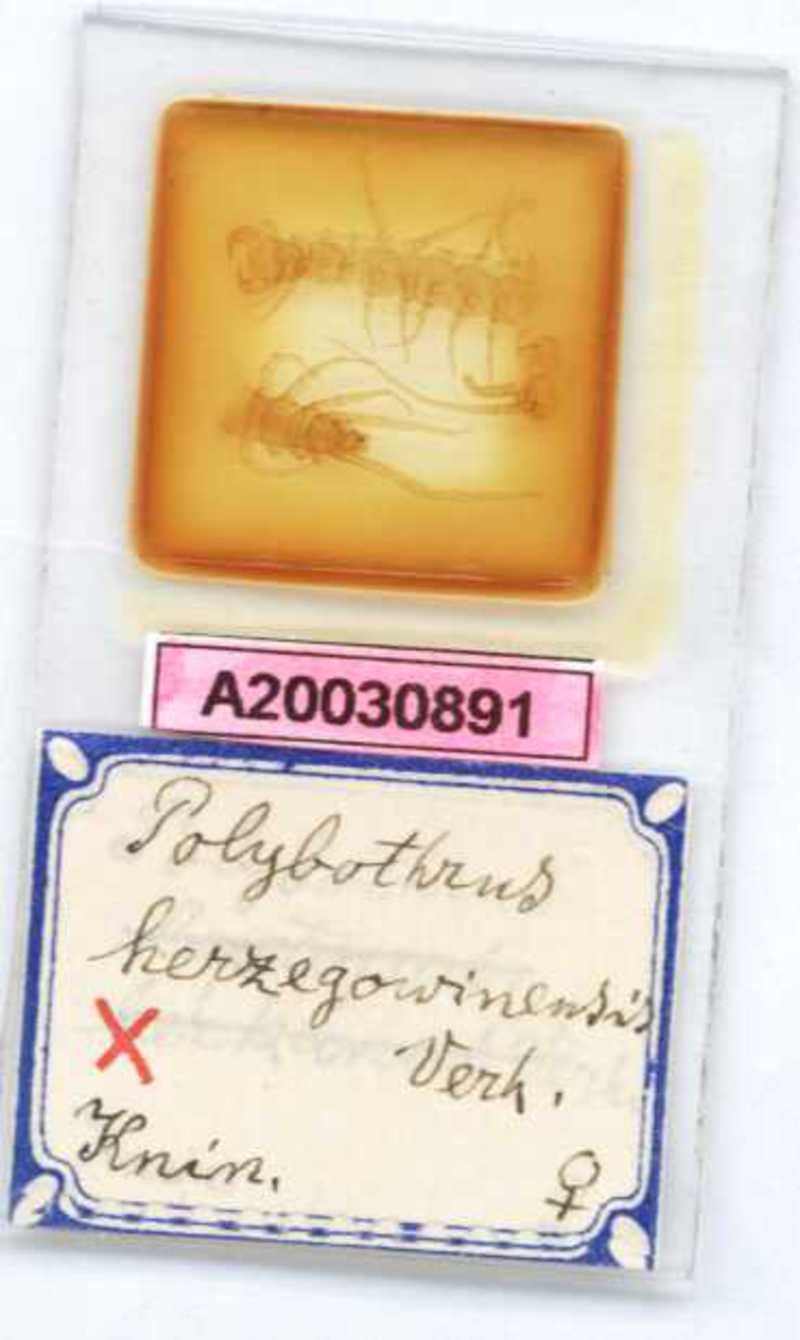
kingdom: Animalia
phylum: Arthropoda
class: Chilopoda
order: Lithobiomorpha
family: Lithobiidae
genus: Polybothrus
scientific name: Polybothrus hercegovinensis
